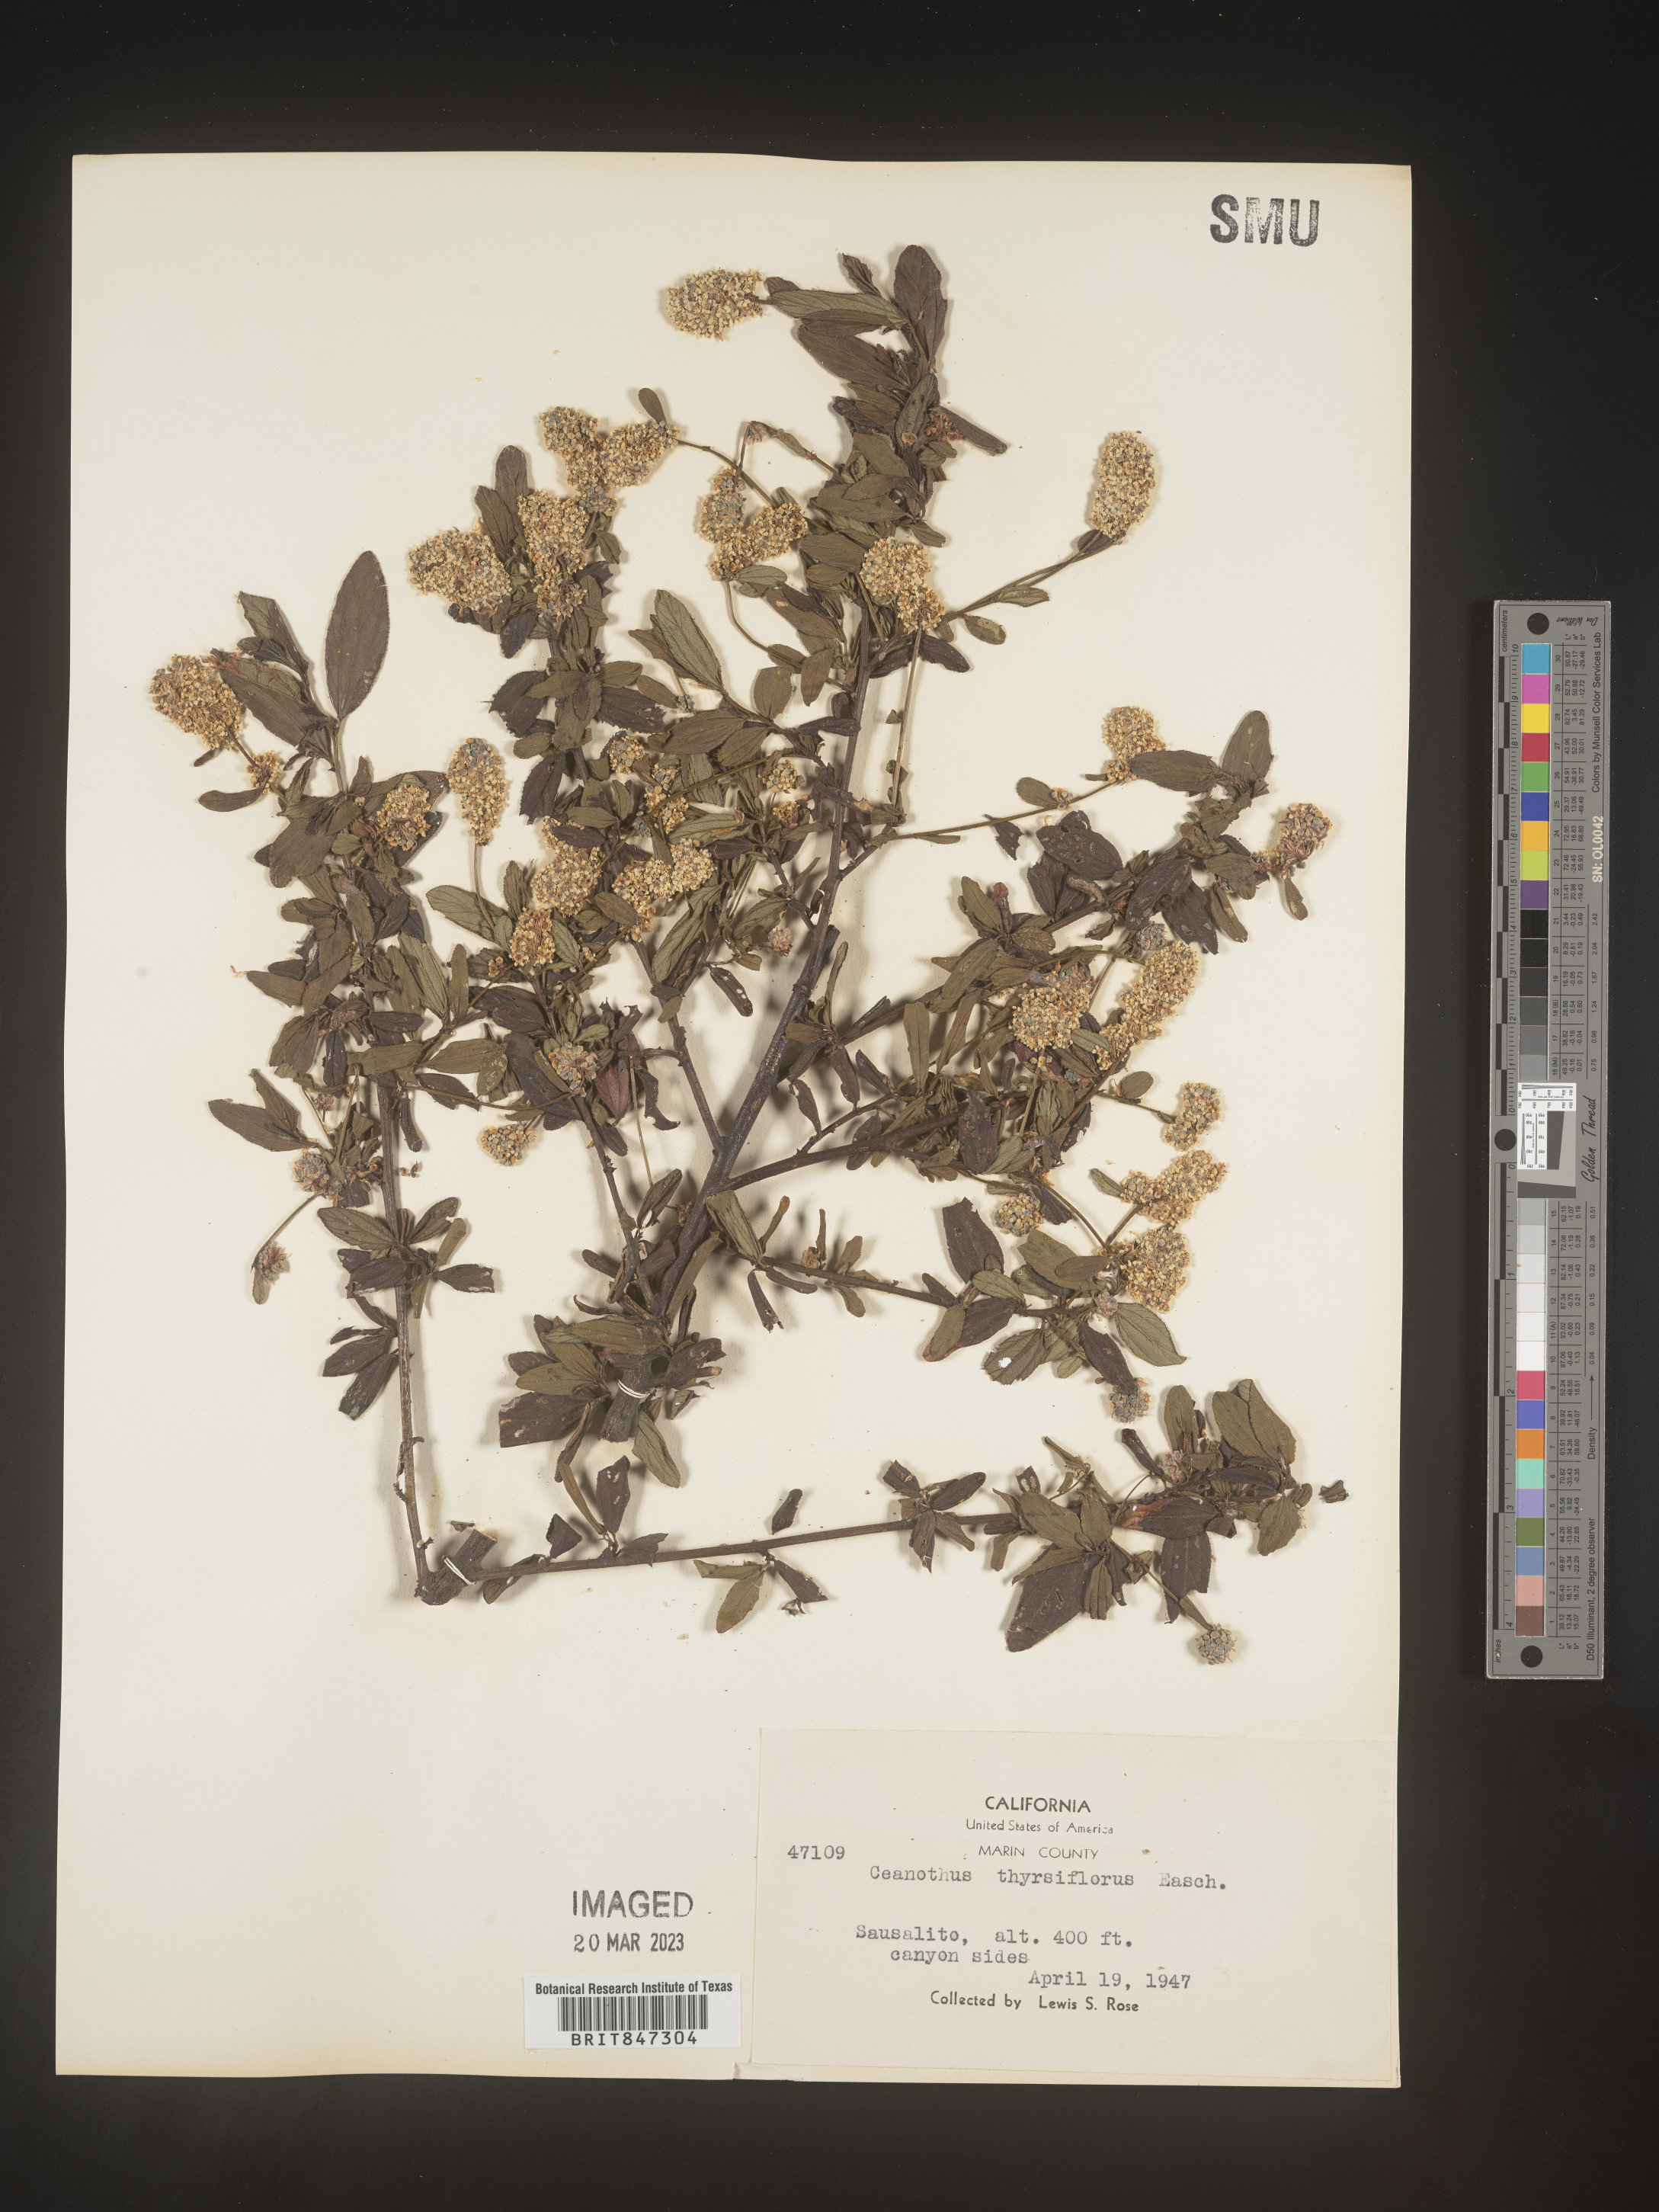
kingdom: Plantae
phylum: Tracheophyta
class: Magnoliopsida
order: Rosales
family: Rhamnaceae
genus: Ceanothus
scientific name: Ceanothus
